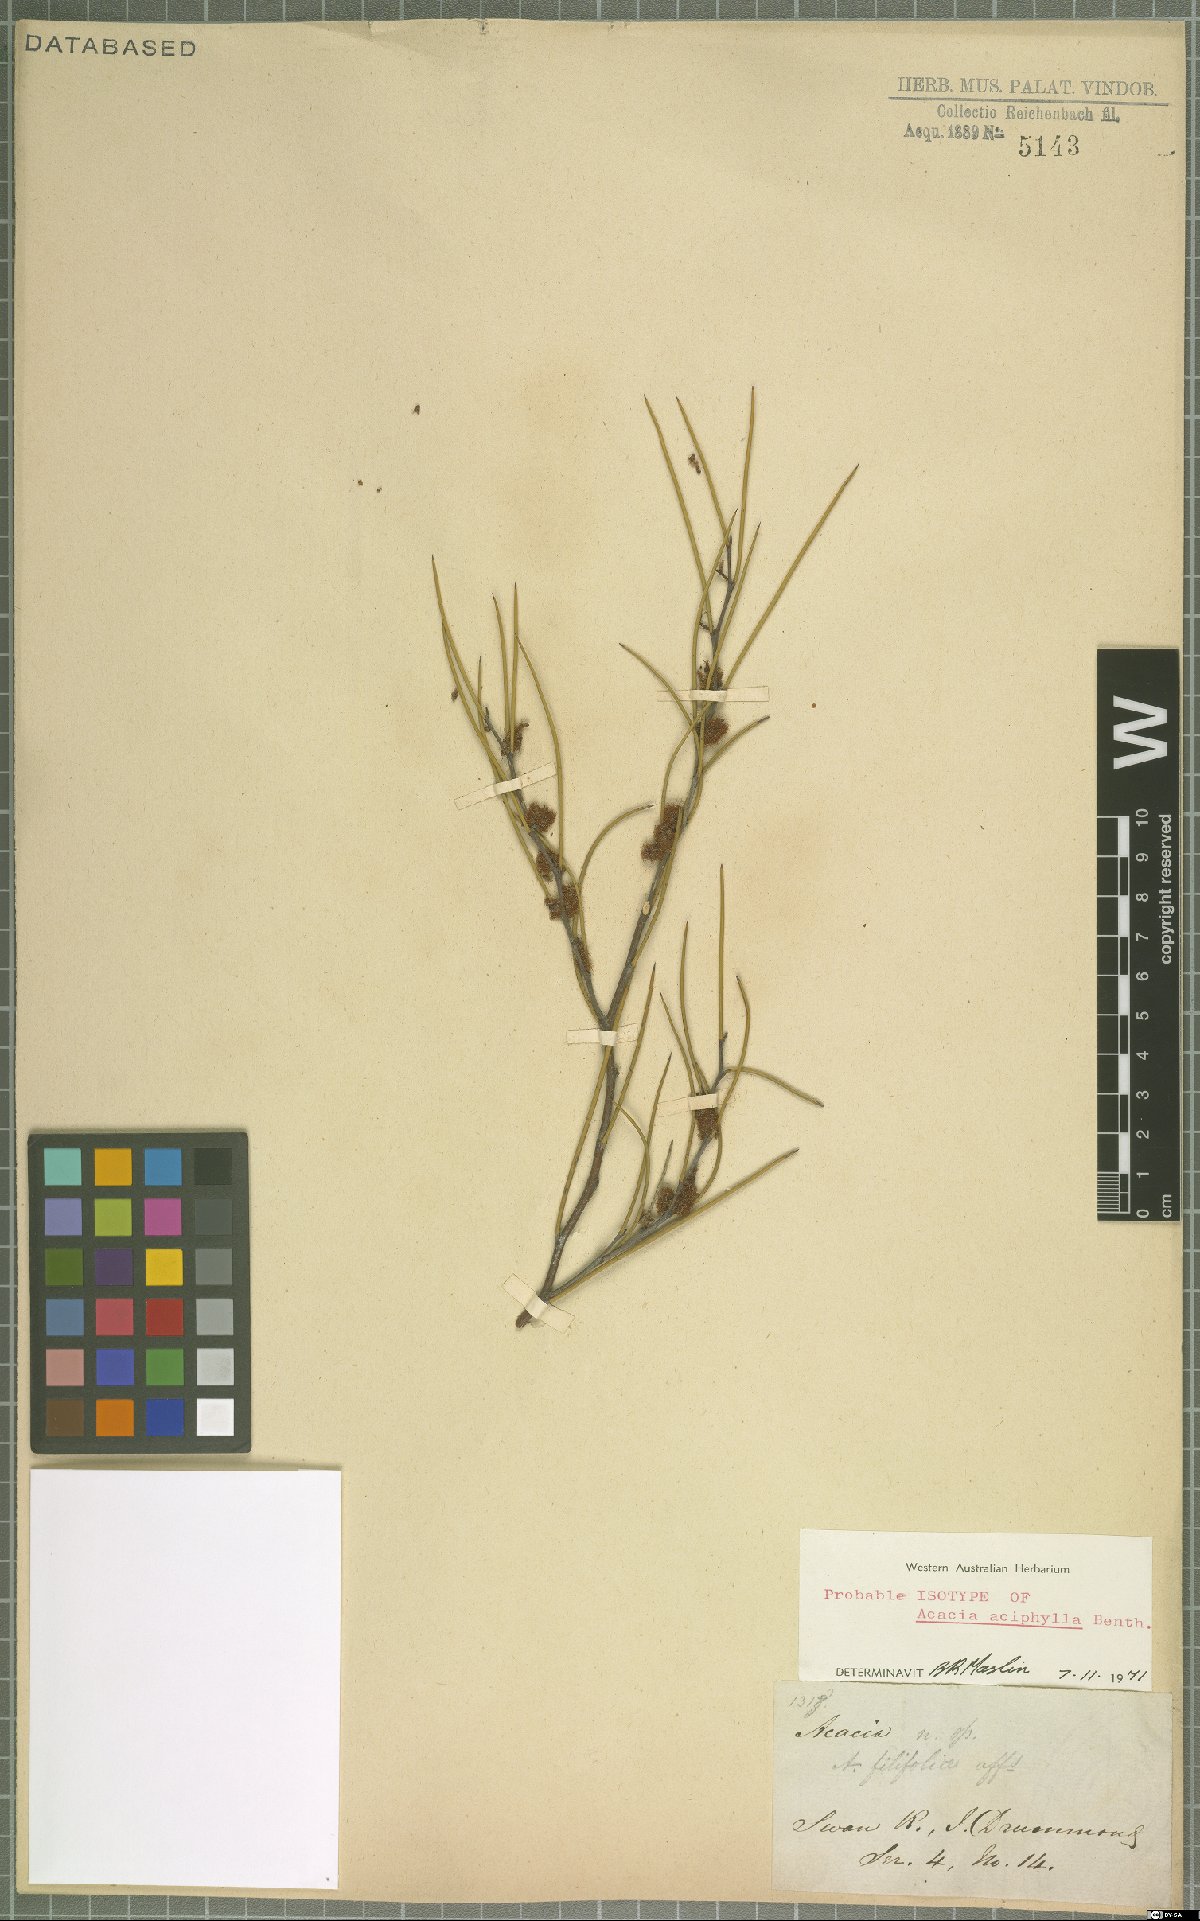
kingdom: Plantae
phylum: Tracheophyta
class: Magnoliopsida
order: Fabales
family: Fabaceae
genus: Acacia
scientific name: Acacia aciphylla
